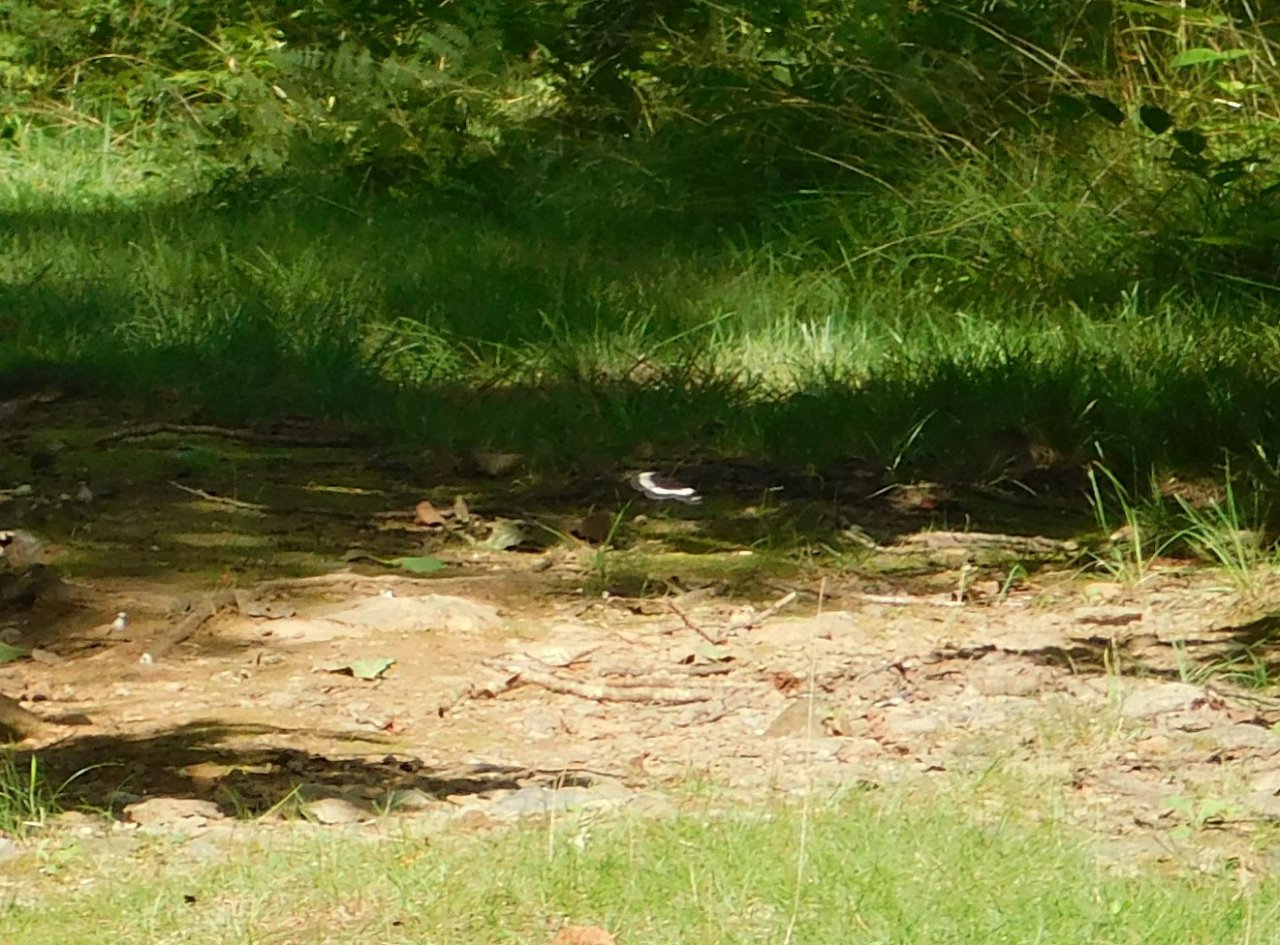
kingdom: Animalia
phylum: Arthropoda
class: Insecta
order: Lepidoptera
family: Nymphalidae
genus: Limenitis
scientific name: Limenitis arthemis
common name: Red-spotted Admiral
